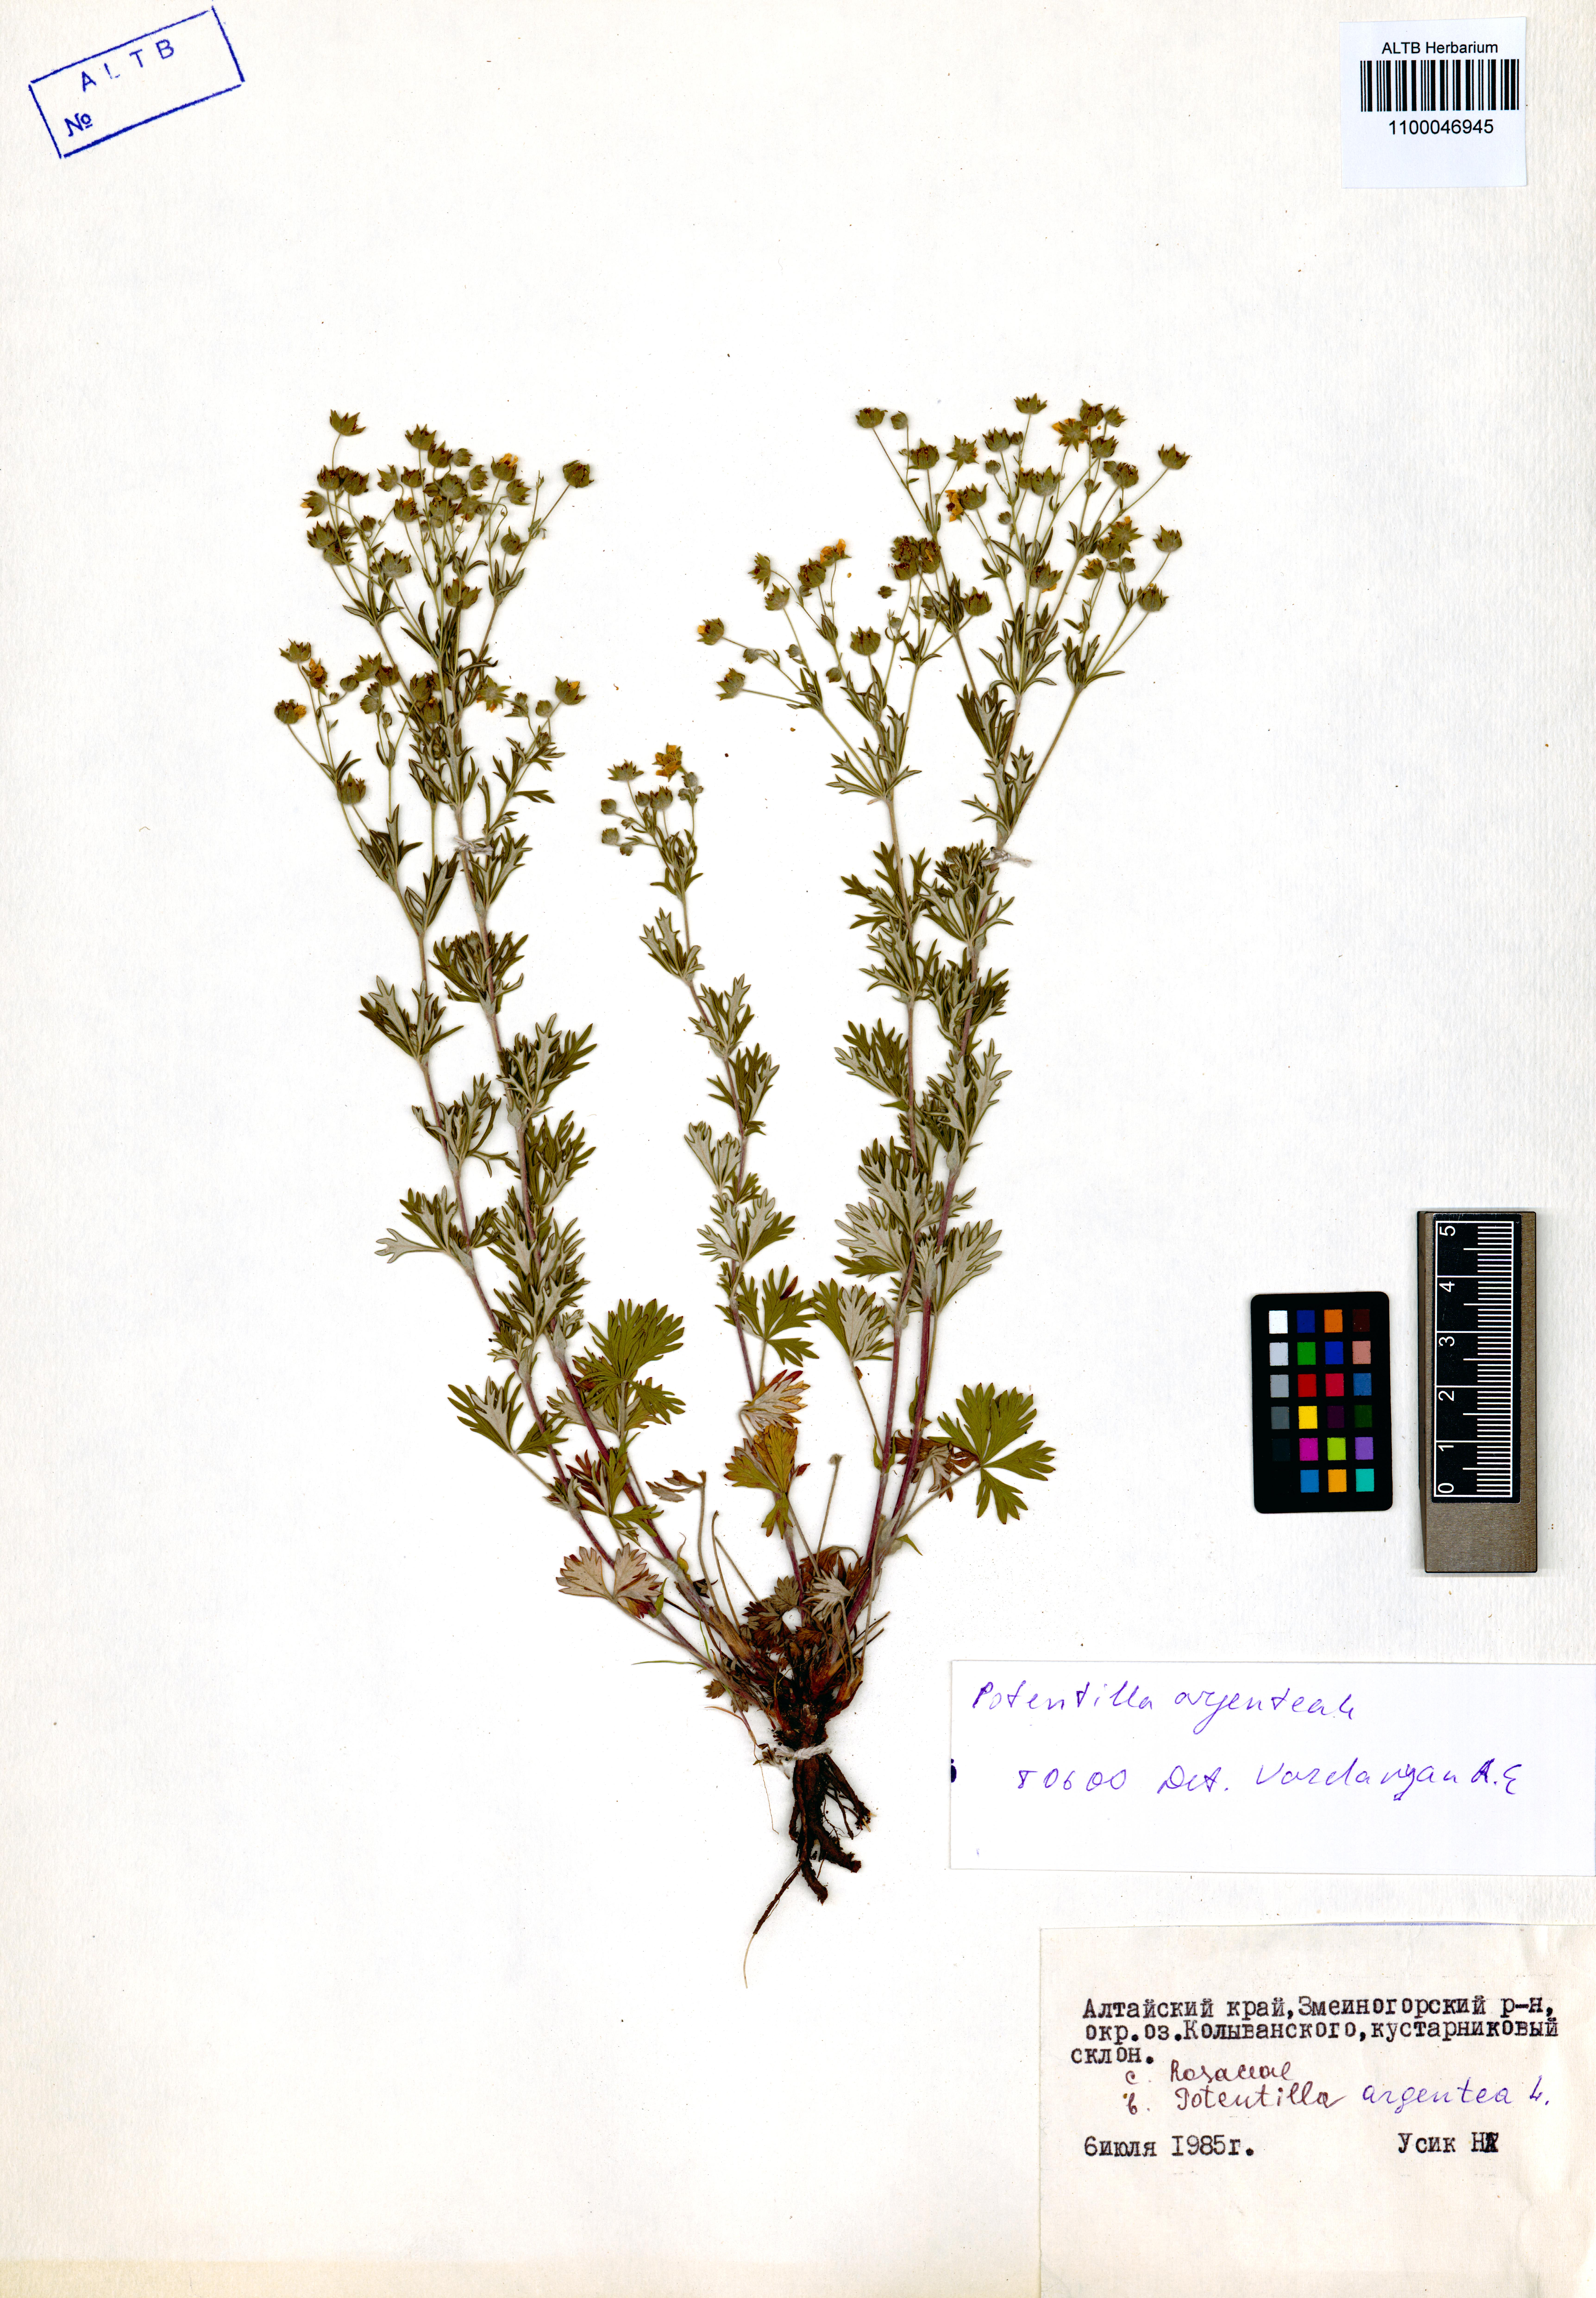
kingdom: Plantae
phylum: Tracheophyta
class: Magnoliopsida
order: Rosales
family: Rosaceae
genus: Potentilla
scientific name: Potentilla argentea
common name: Hoary cinquefoil
